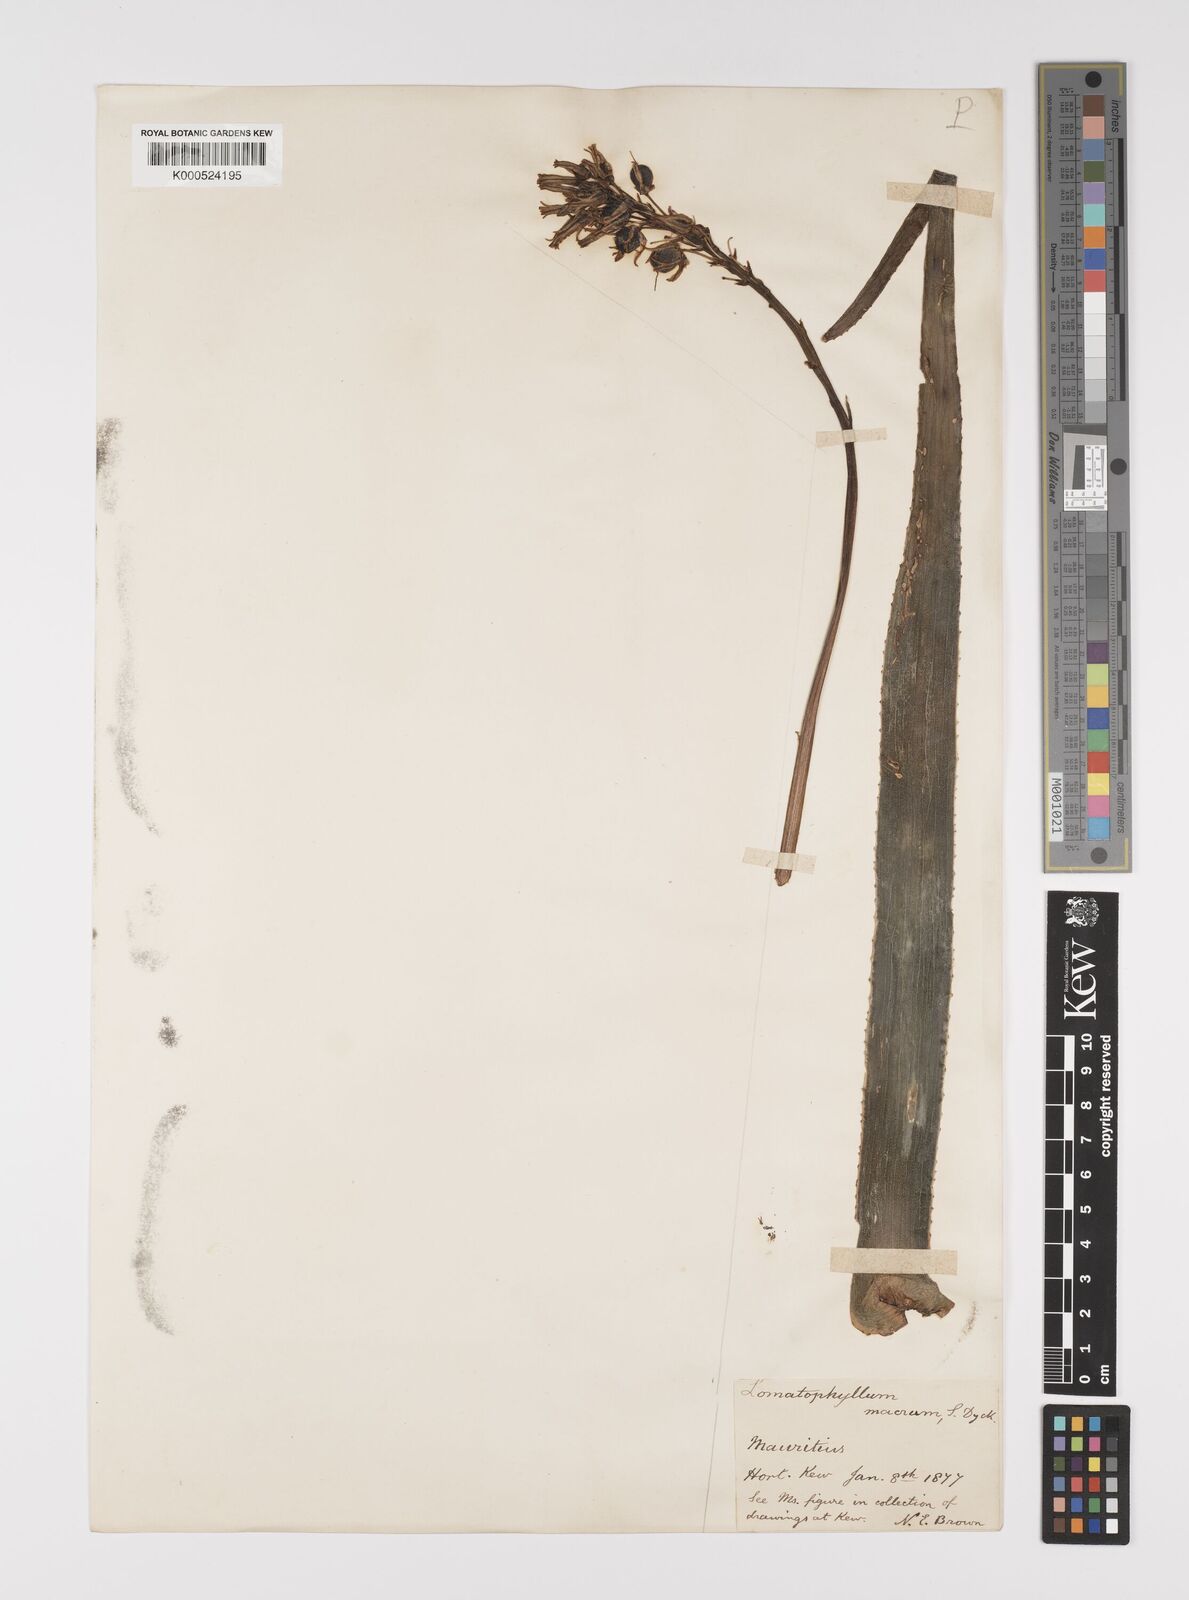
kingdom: Plantae
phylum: Tracheophyta
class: Liliopsida
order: Asparagales
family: Asphodelaceae
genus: Aloe
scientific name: Aloe purpurea
